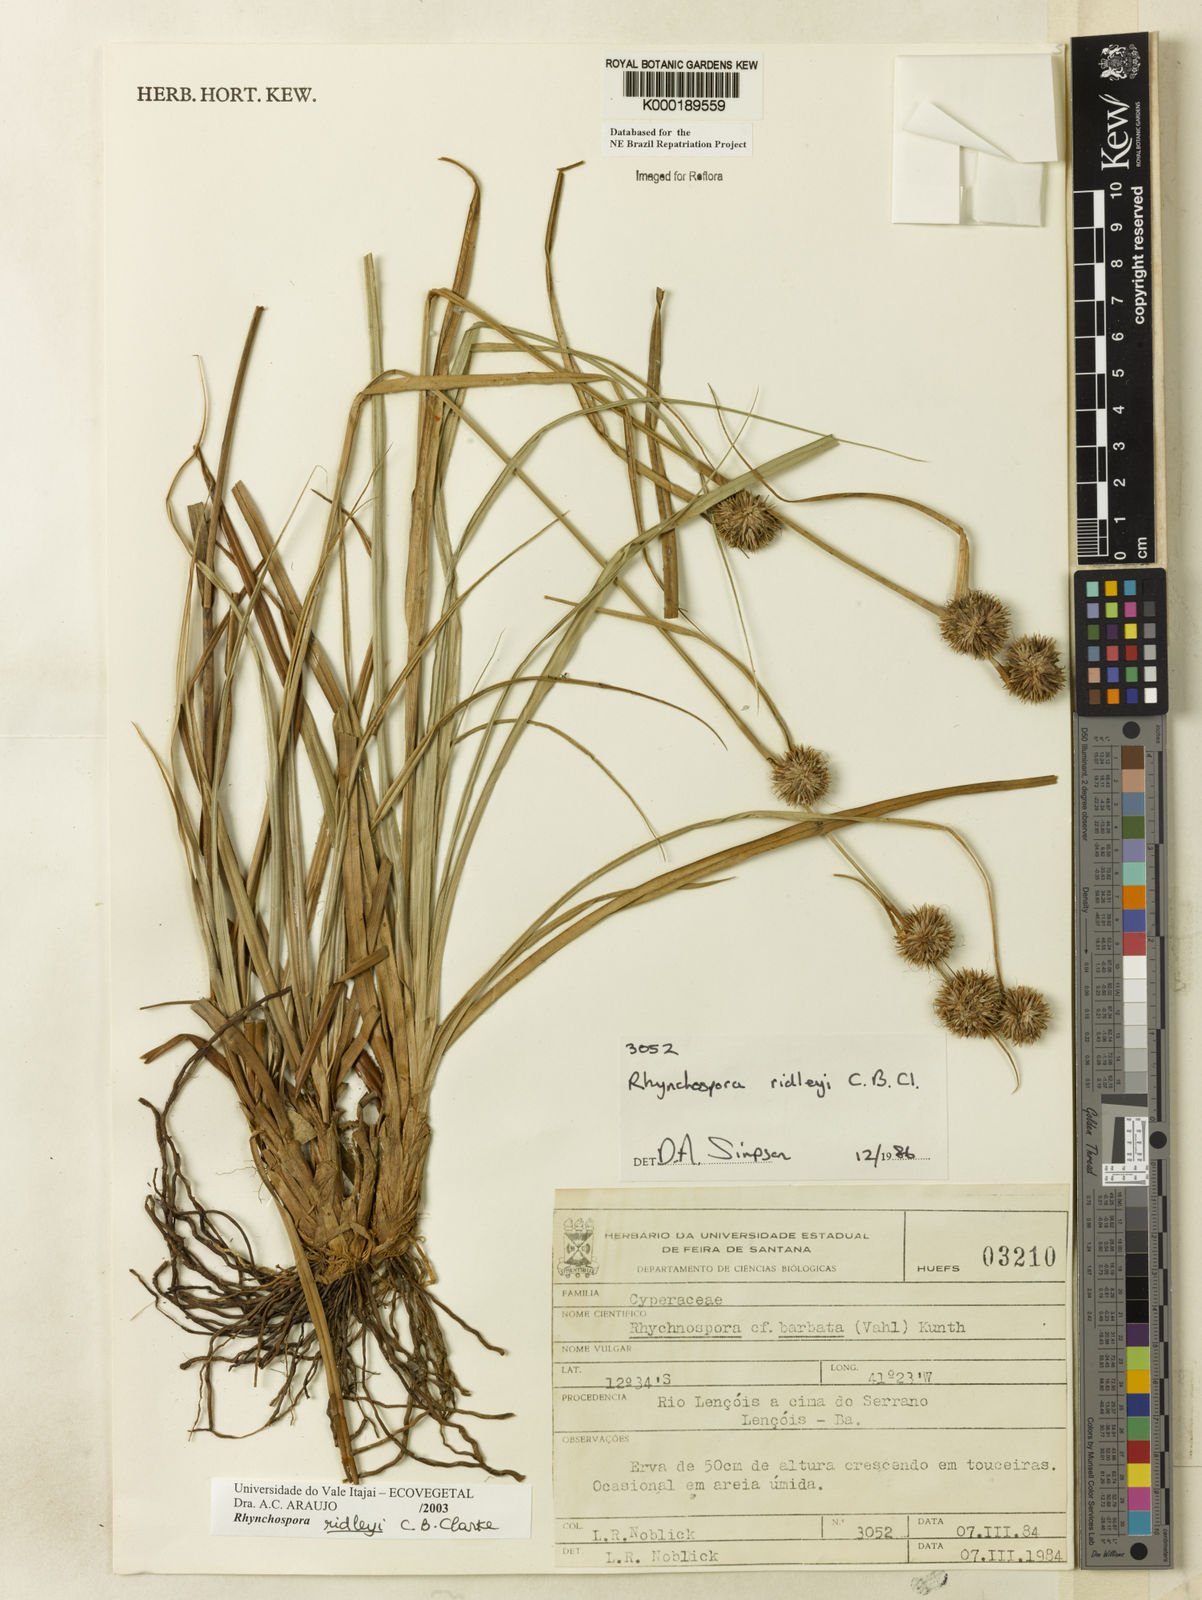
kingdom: Plantae
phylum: Tracheophyta
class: Liliopsida
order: Poales
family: Cyperaceae
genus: Rhynchospora
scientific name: Rhynchospora ridleyi
